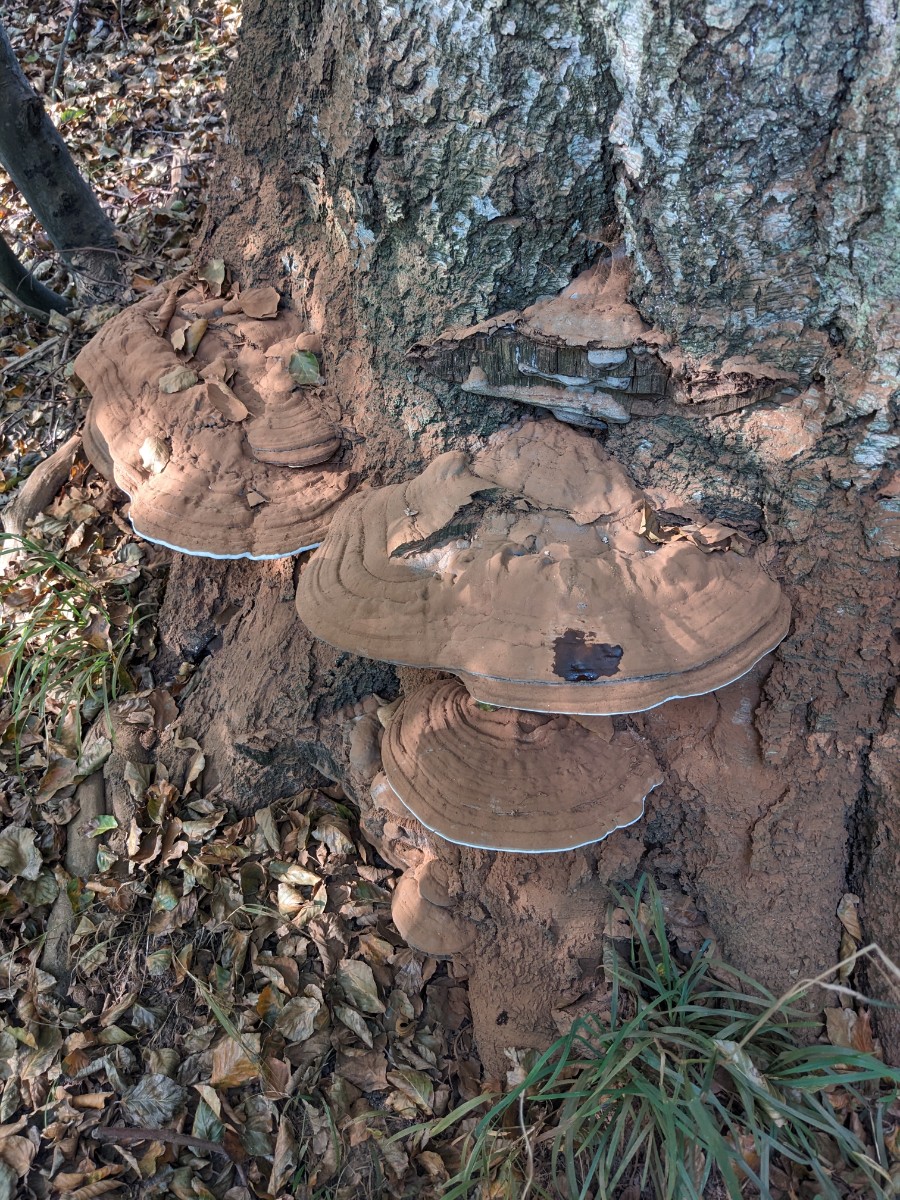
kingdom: Fungi
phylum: Basidiomycota
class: Agaricomycetes
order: Polyporales
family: Polyporaceae
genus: Ganoderma
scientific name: Ganoderma pfeifferi
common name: kobberrød lakporesvamp
